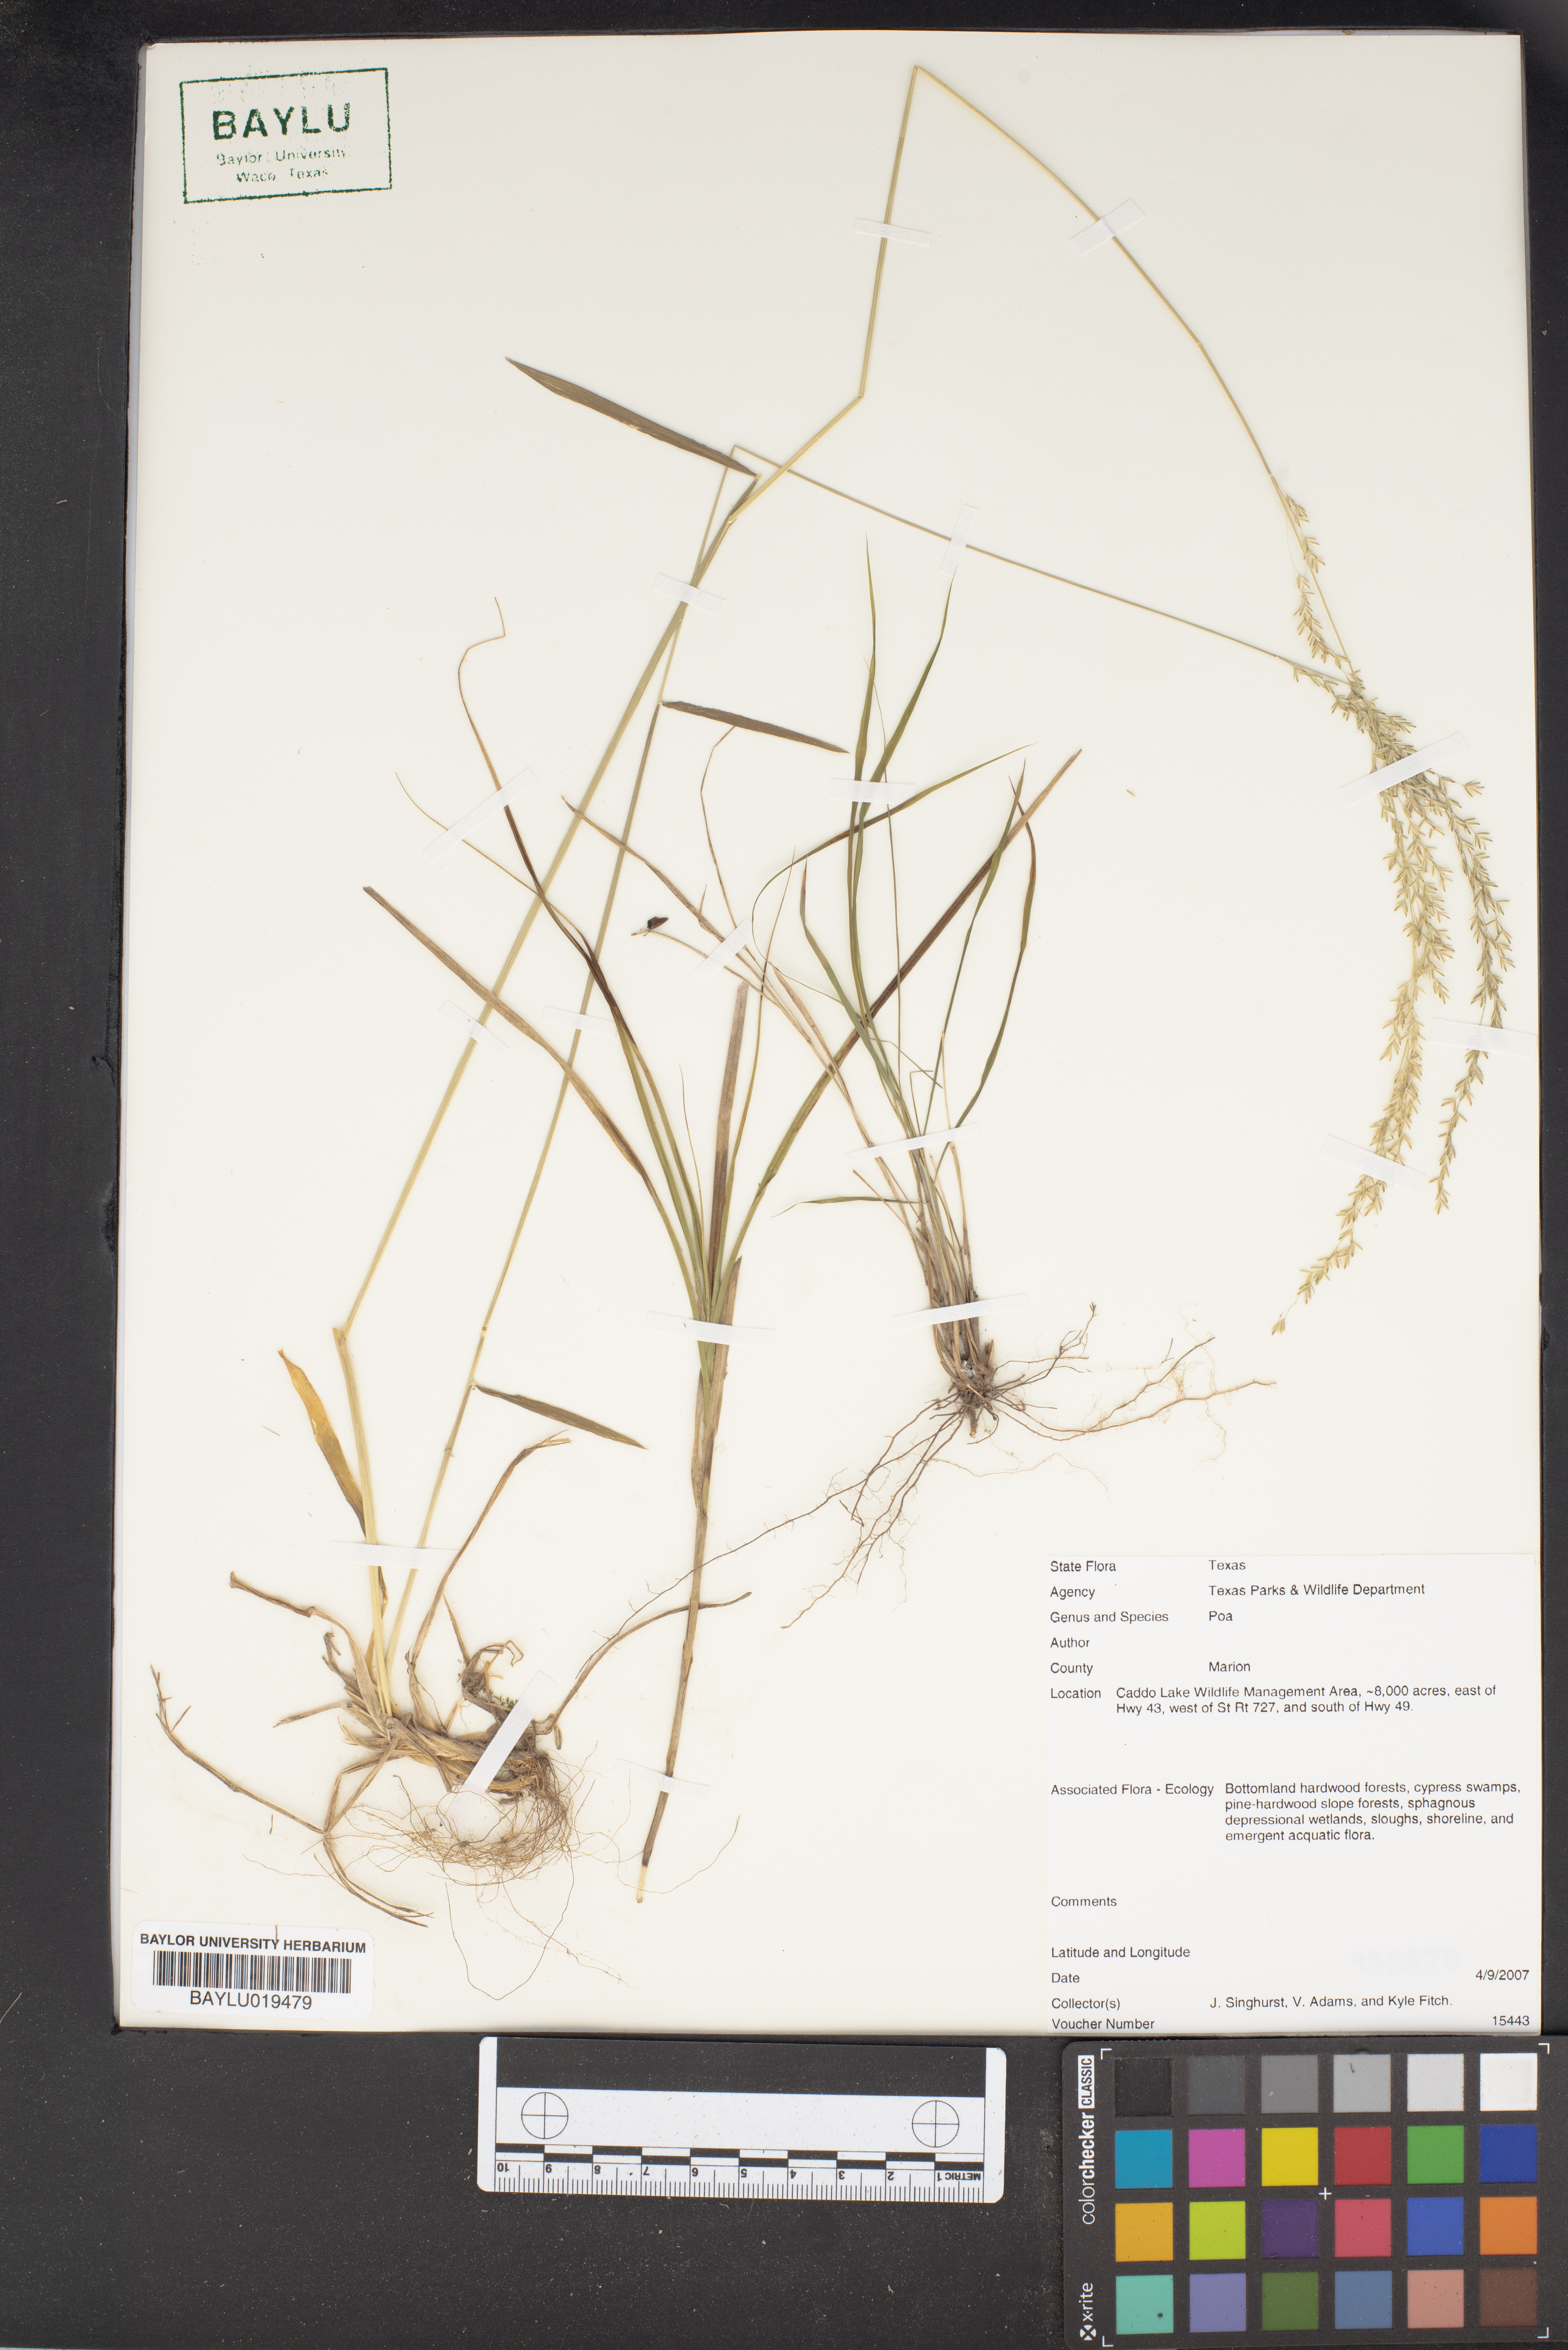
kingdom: Plantae
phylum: Tracheophyta
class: Liliopsida
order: Poales
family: Poaceae
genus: Poa
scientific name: Poa
